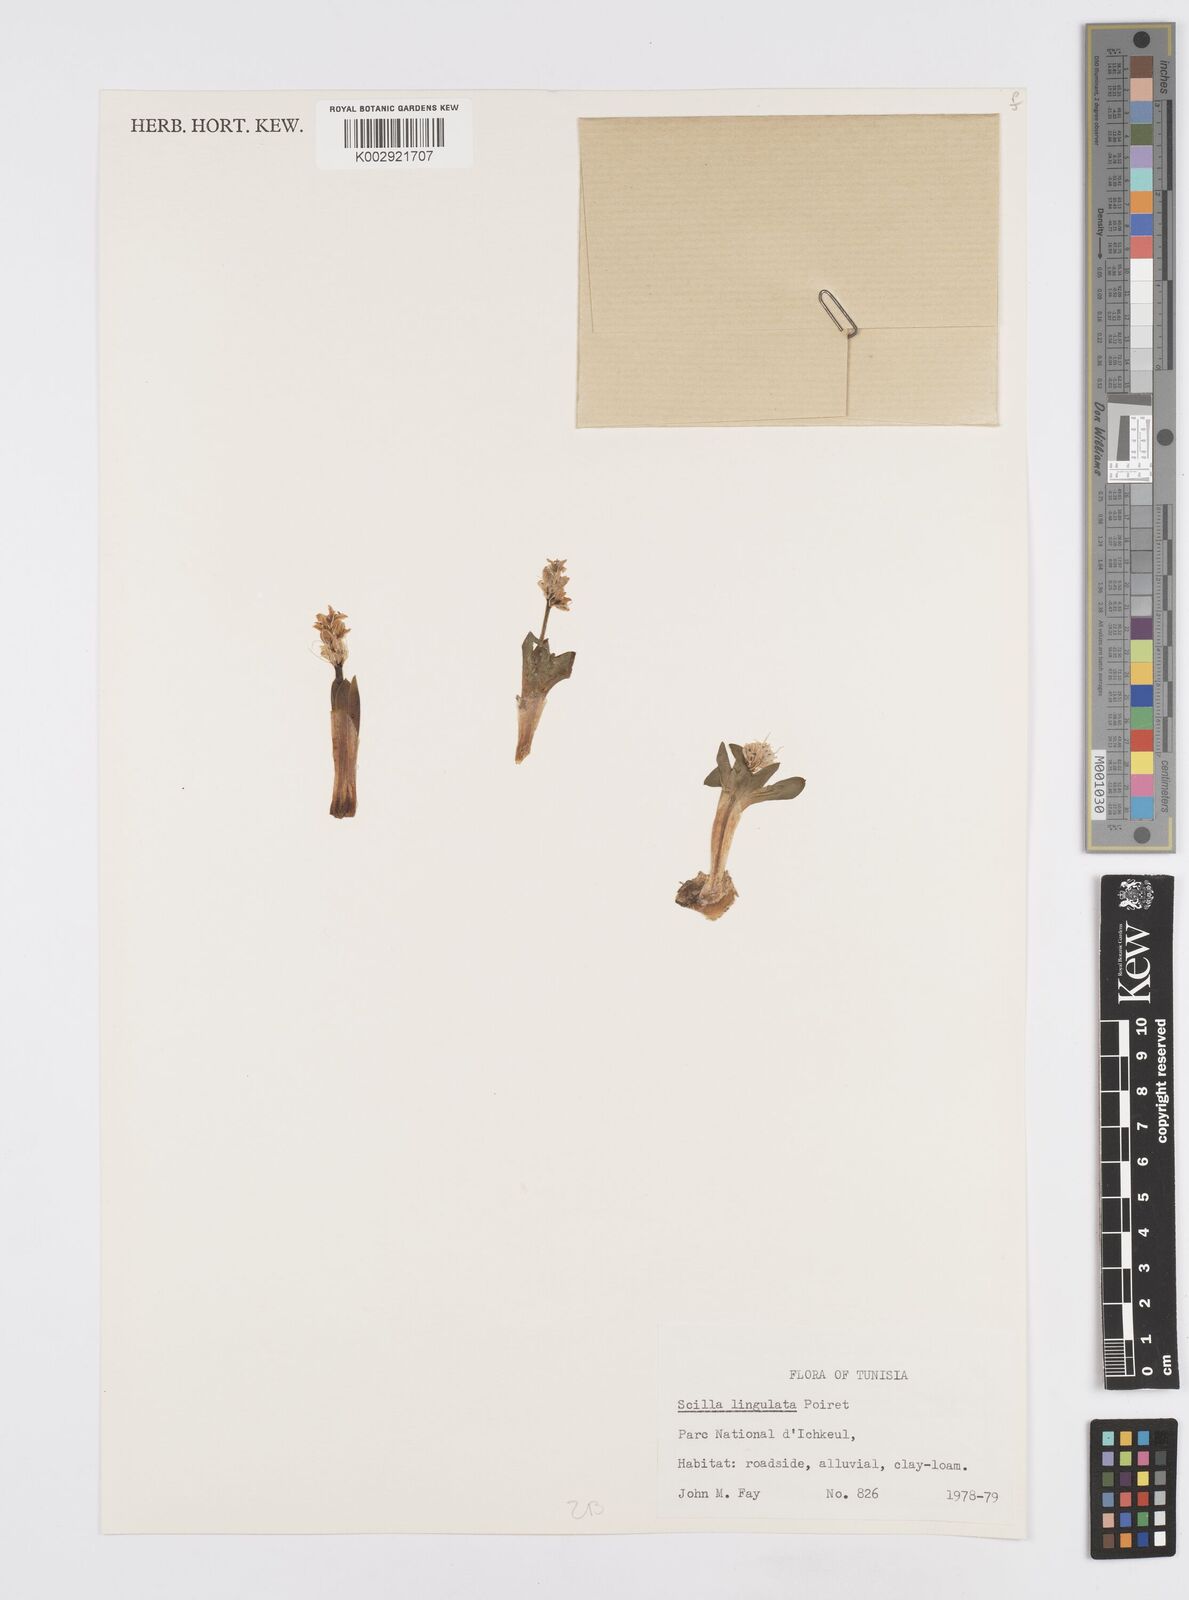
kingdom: Plantae
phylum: Tracheophyta
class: Liliopsida
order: Asparagales
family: Asparagaceae
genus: Hyacinthoides
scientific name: Hyacinthoides lingulata
